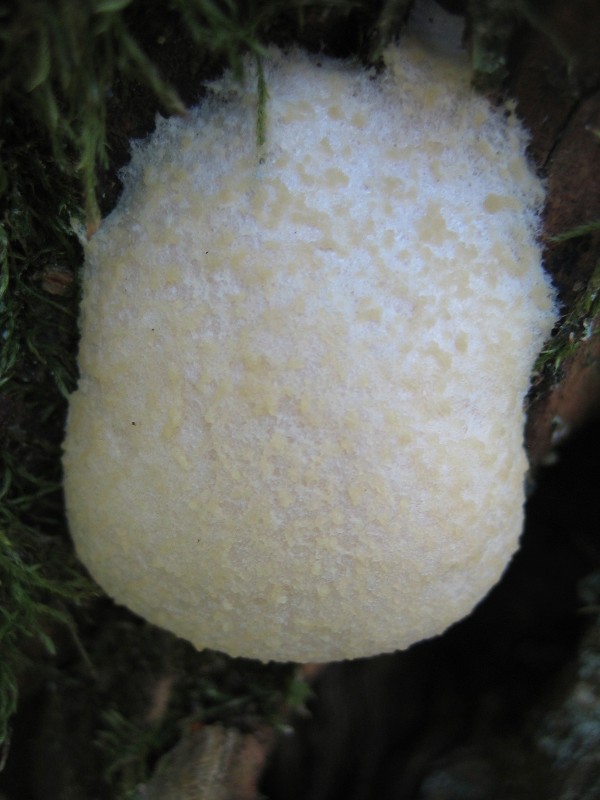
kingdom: Protozoa
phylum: Mycetozoa
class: Myxomycetes
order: Cribrariales
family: Tubiferaceae
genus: Reticularia
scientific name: Reticularia
